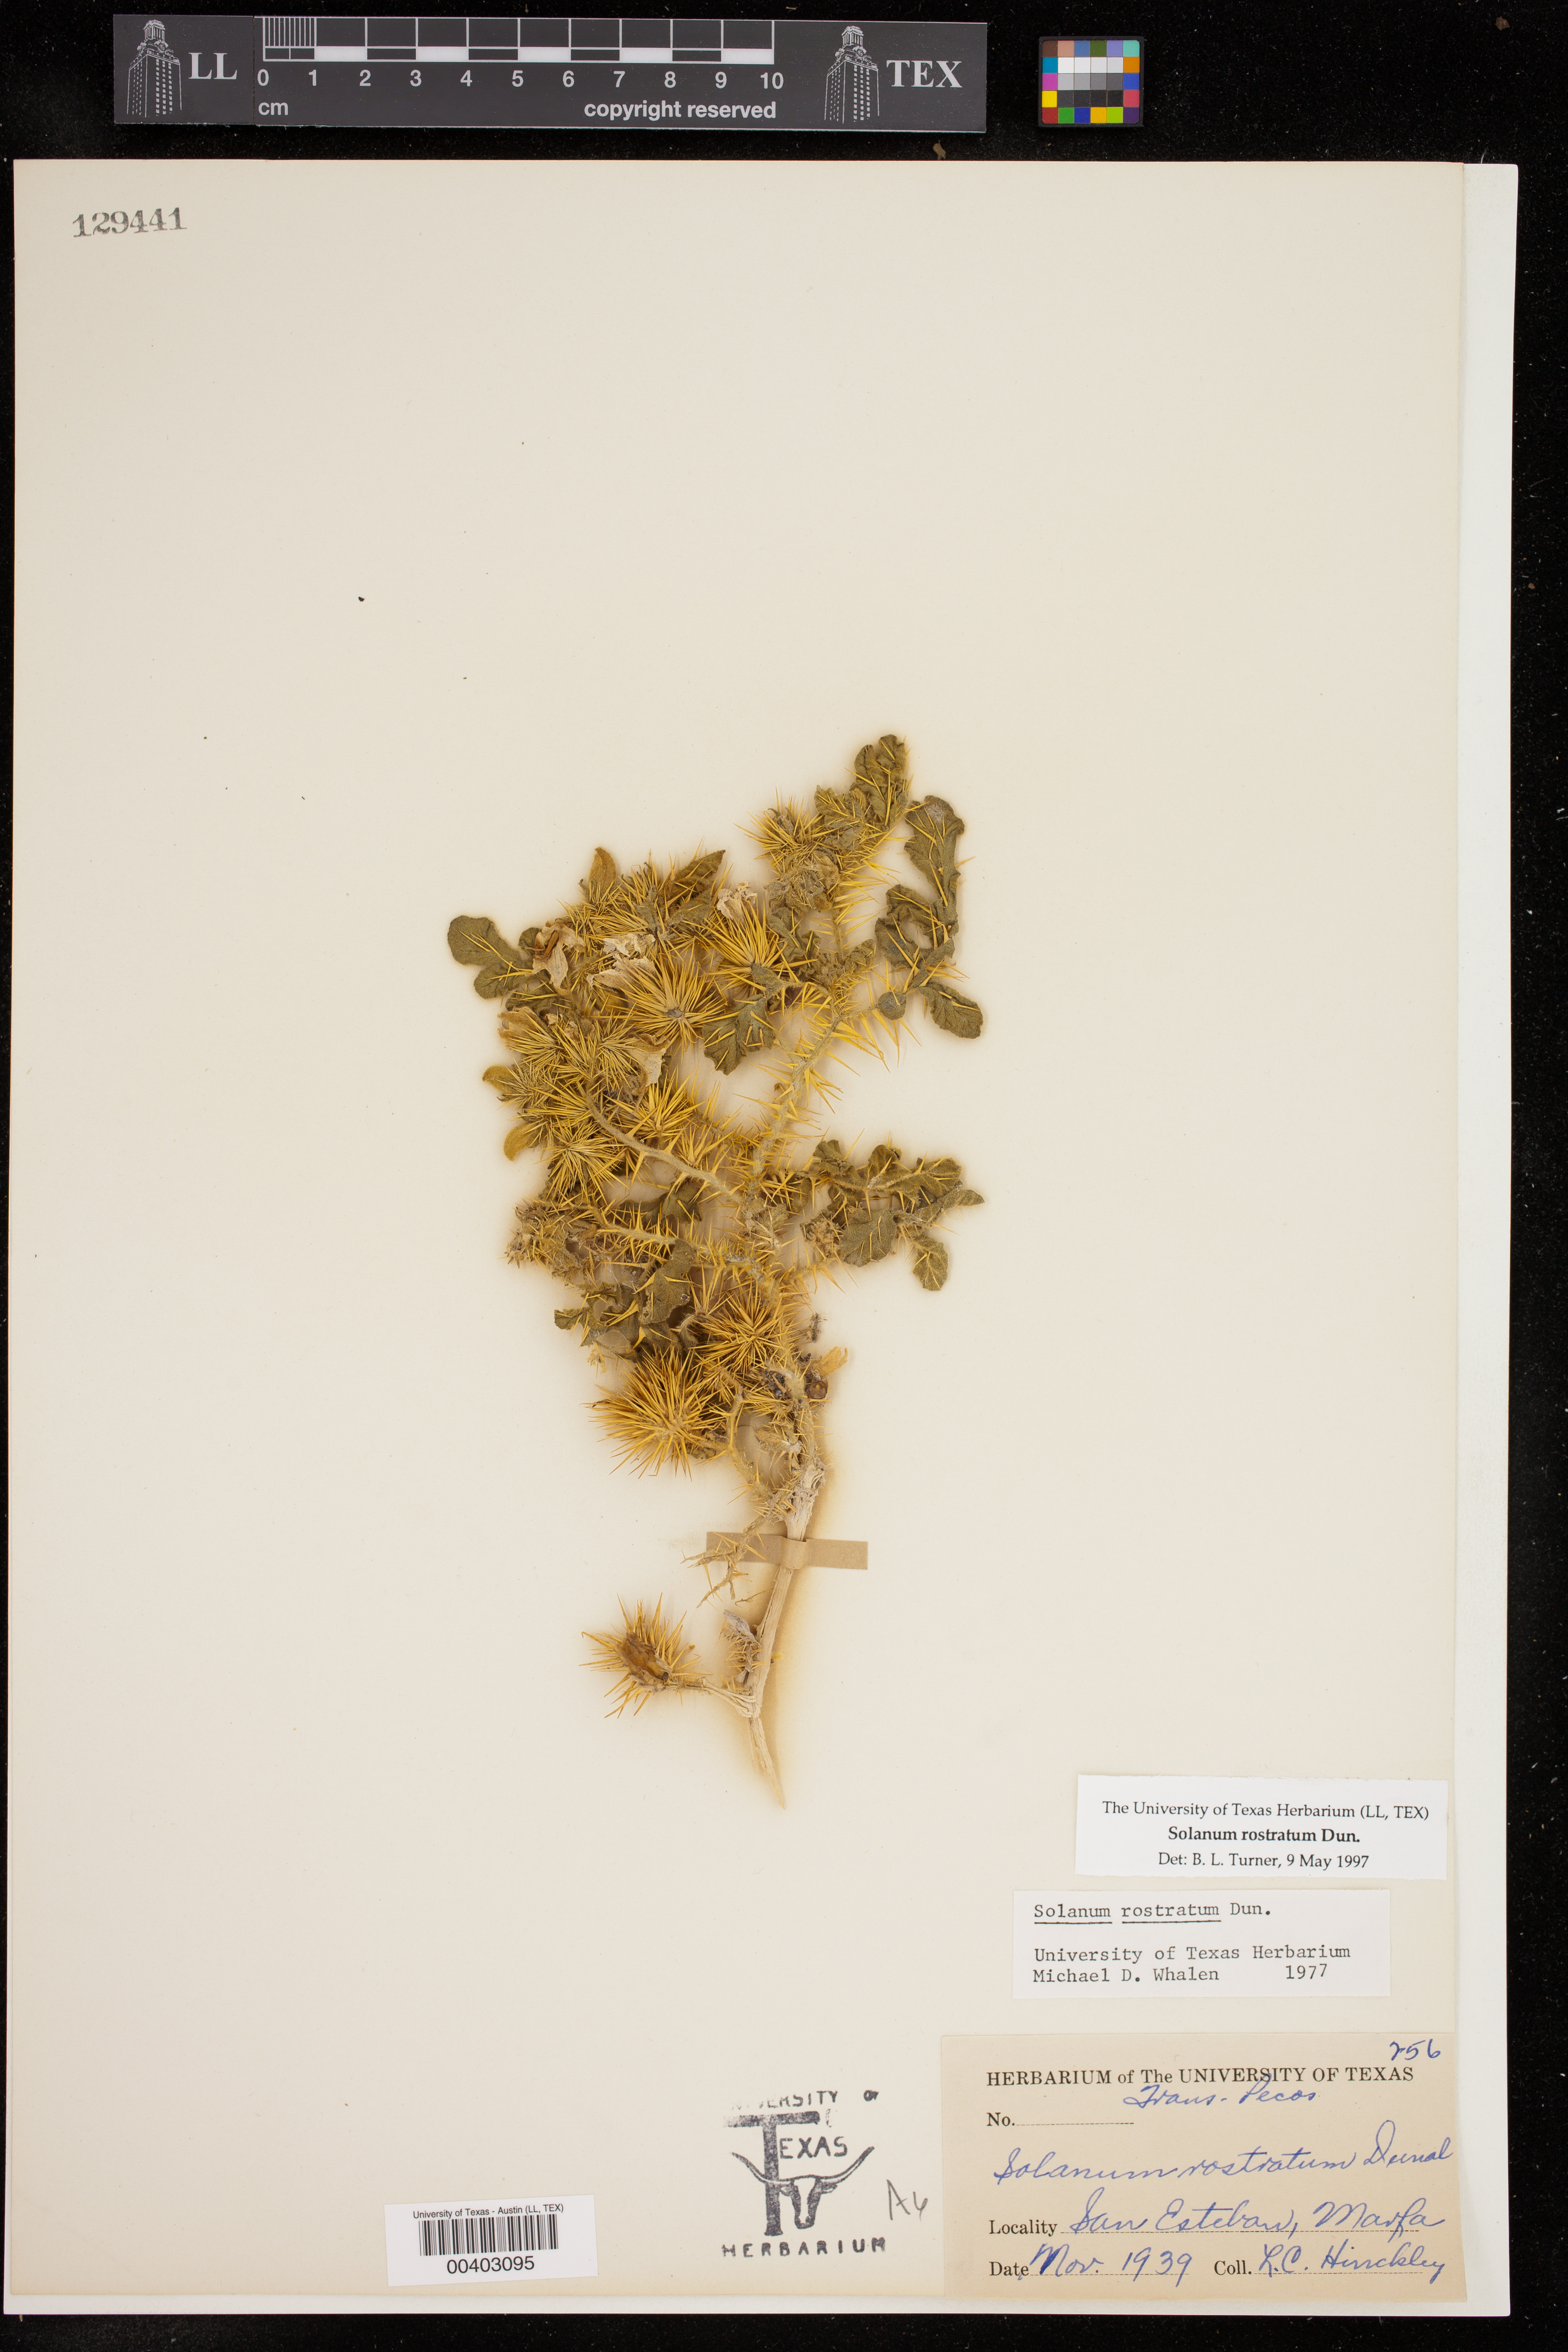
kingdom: Plantae
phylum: Tracheophyta
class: Magnoliopsida
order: Solanales
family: Solanaceae
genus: Solanum
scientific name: Solanum angustifolium
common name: Buffalobur nightshade
